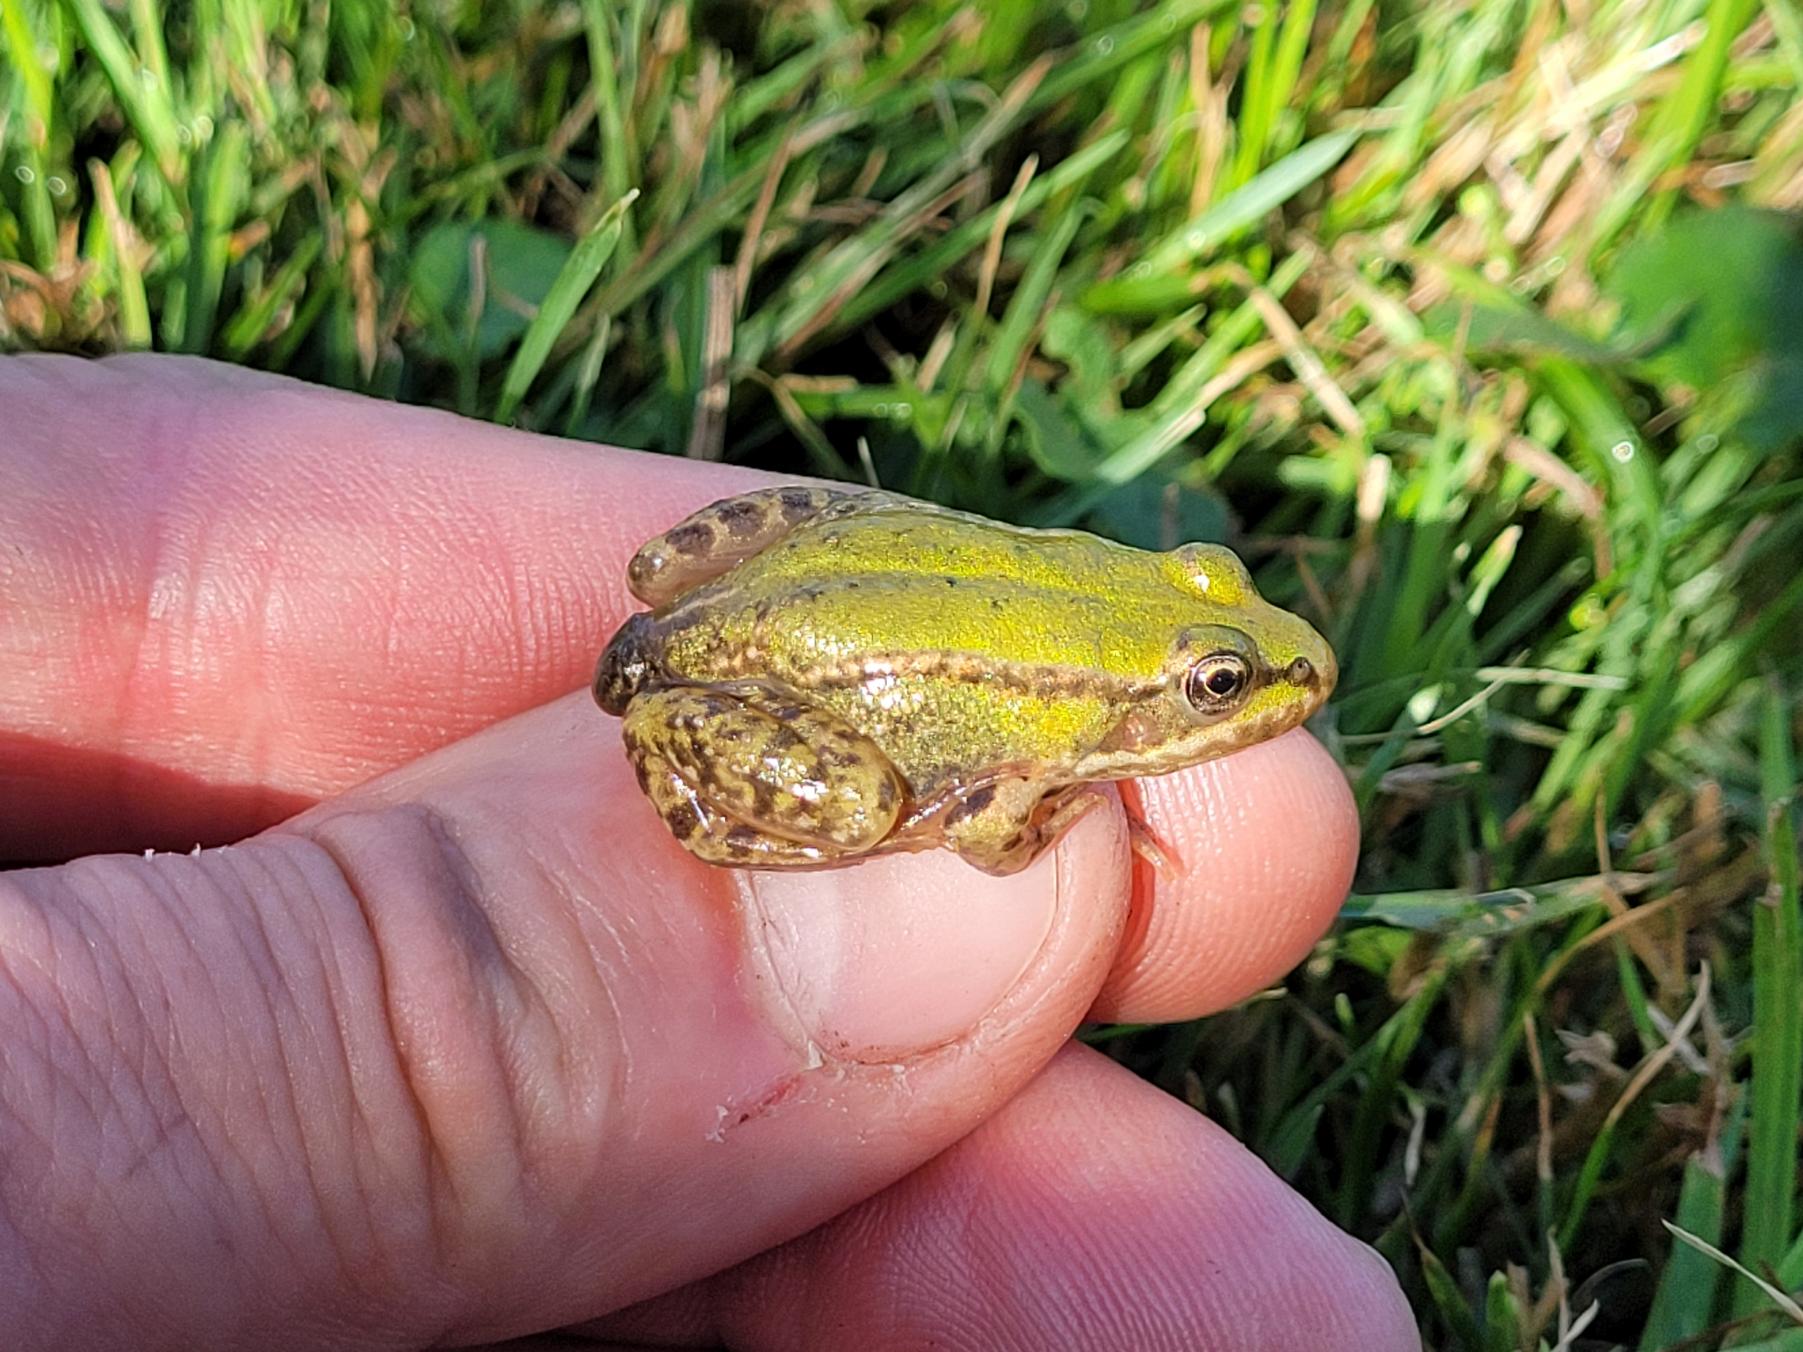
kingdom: Animalia
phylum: Chordata
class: Amphibia
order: Anura
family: Ranidae
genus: Pelophylax
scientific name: Pelophylax lessonae
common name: Grøn frø
